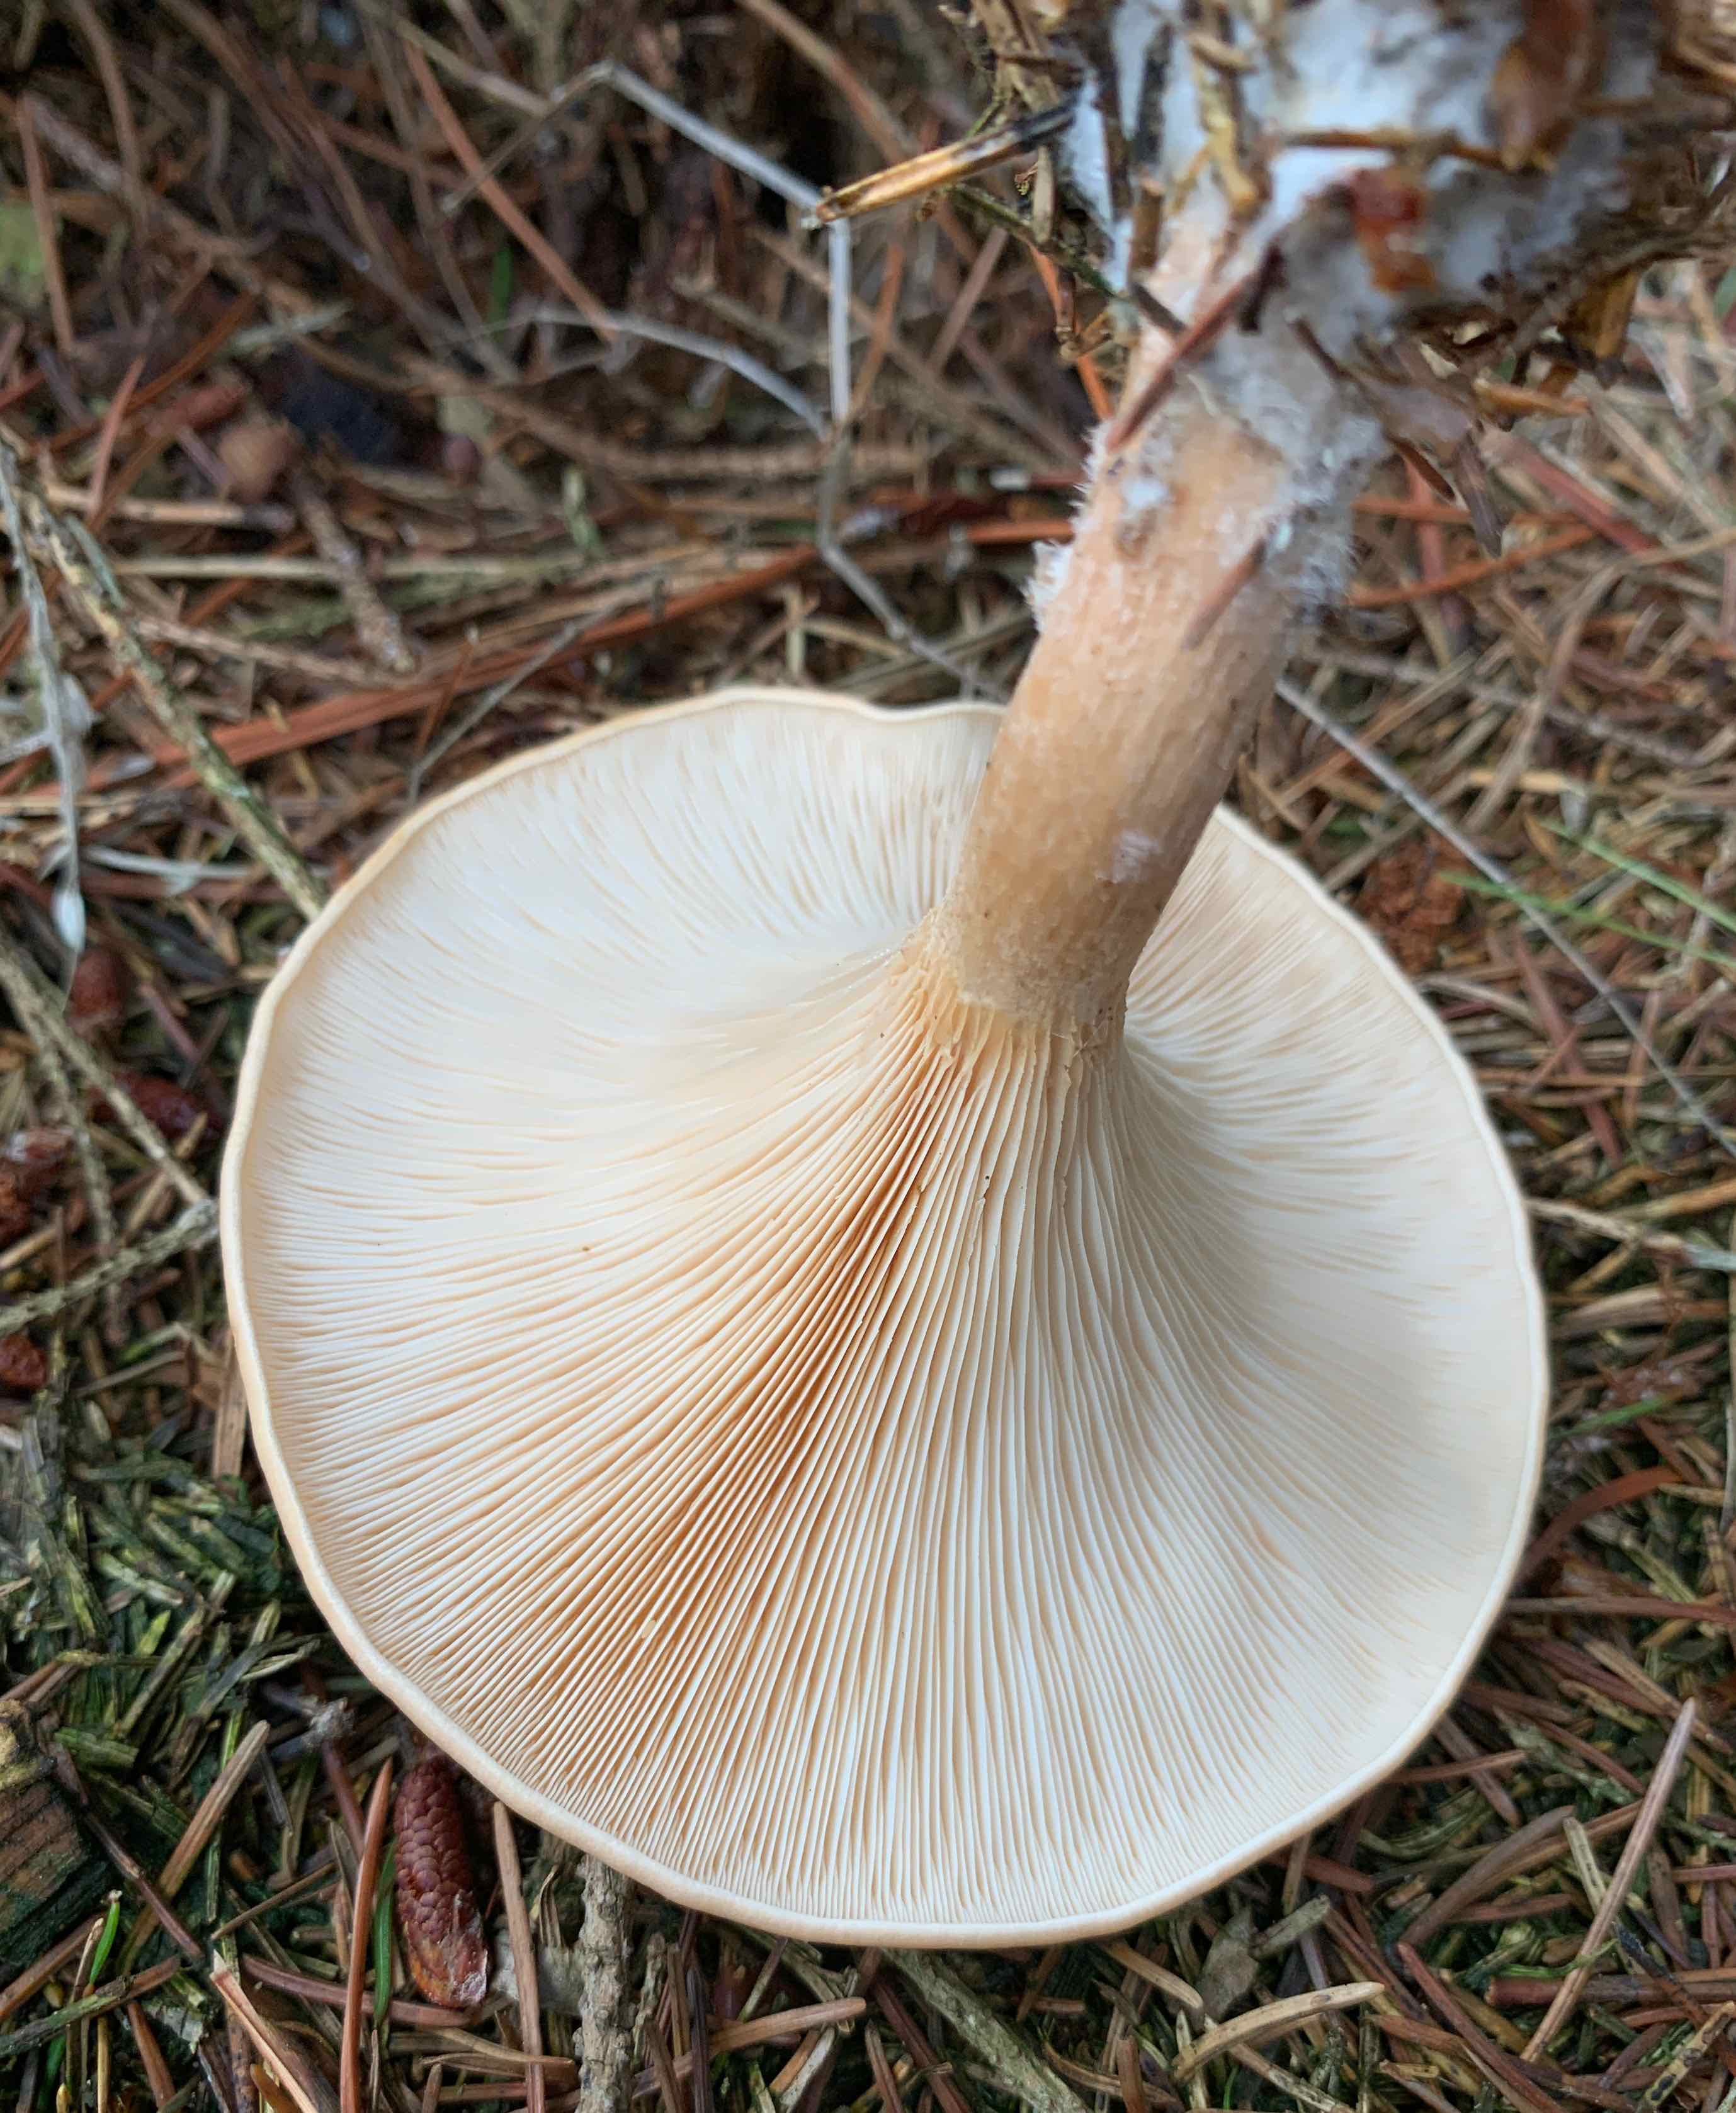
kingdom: Fungi
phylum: Basidiomycota
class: Agaricomycetes
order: Agaricales
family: Tricholomataceae
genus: Paralepista
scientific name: Paralepista flaccida
